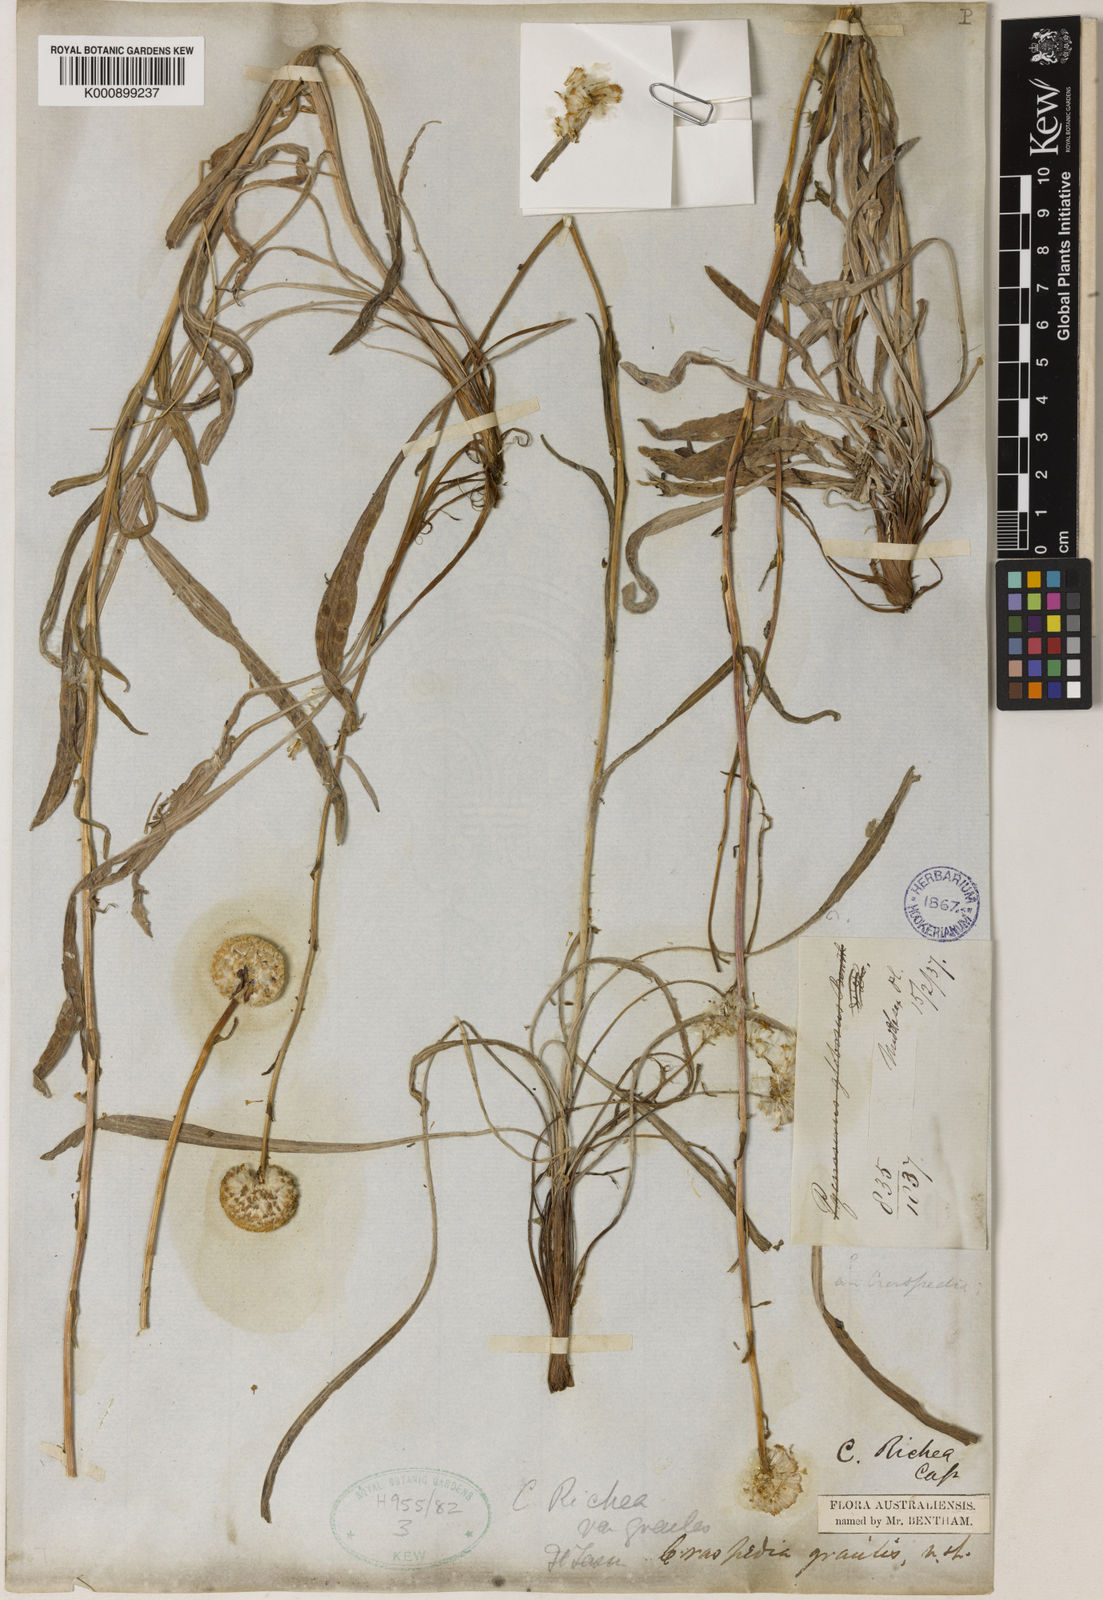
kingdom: Plantae
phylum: Tracheophyta
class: Magnoliopsida
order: Asterales
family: Asteraceae
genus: Craspedia
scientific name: Craspedia glauca
